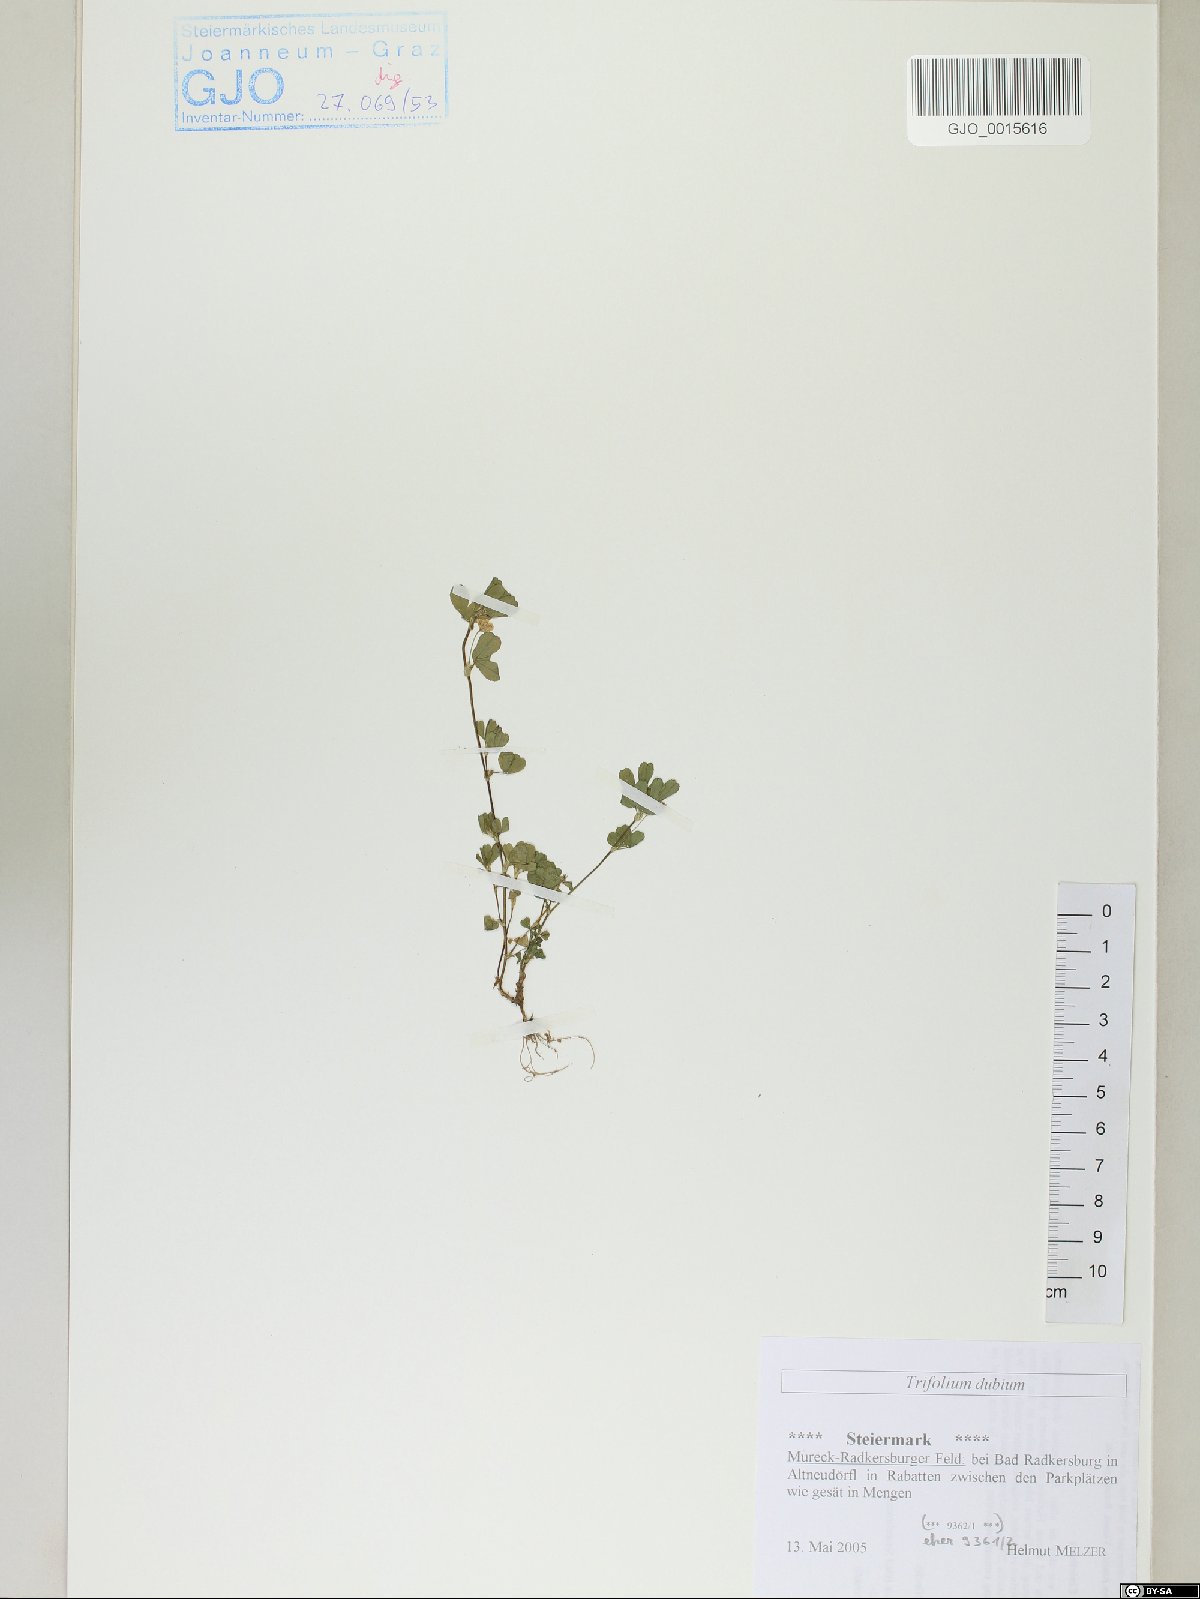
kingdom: Plantae
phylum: Tracheophyta
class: Magnoliopsida
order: Fabales
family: Fabaceae
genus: Trifolium
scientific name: Trifolium dubium
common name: Suckling clover
